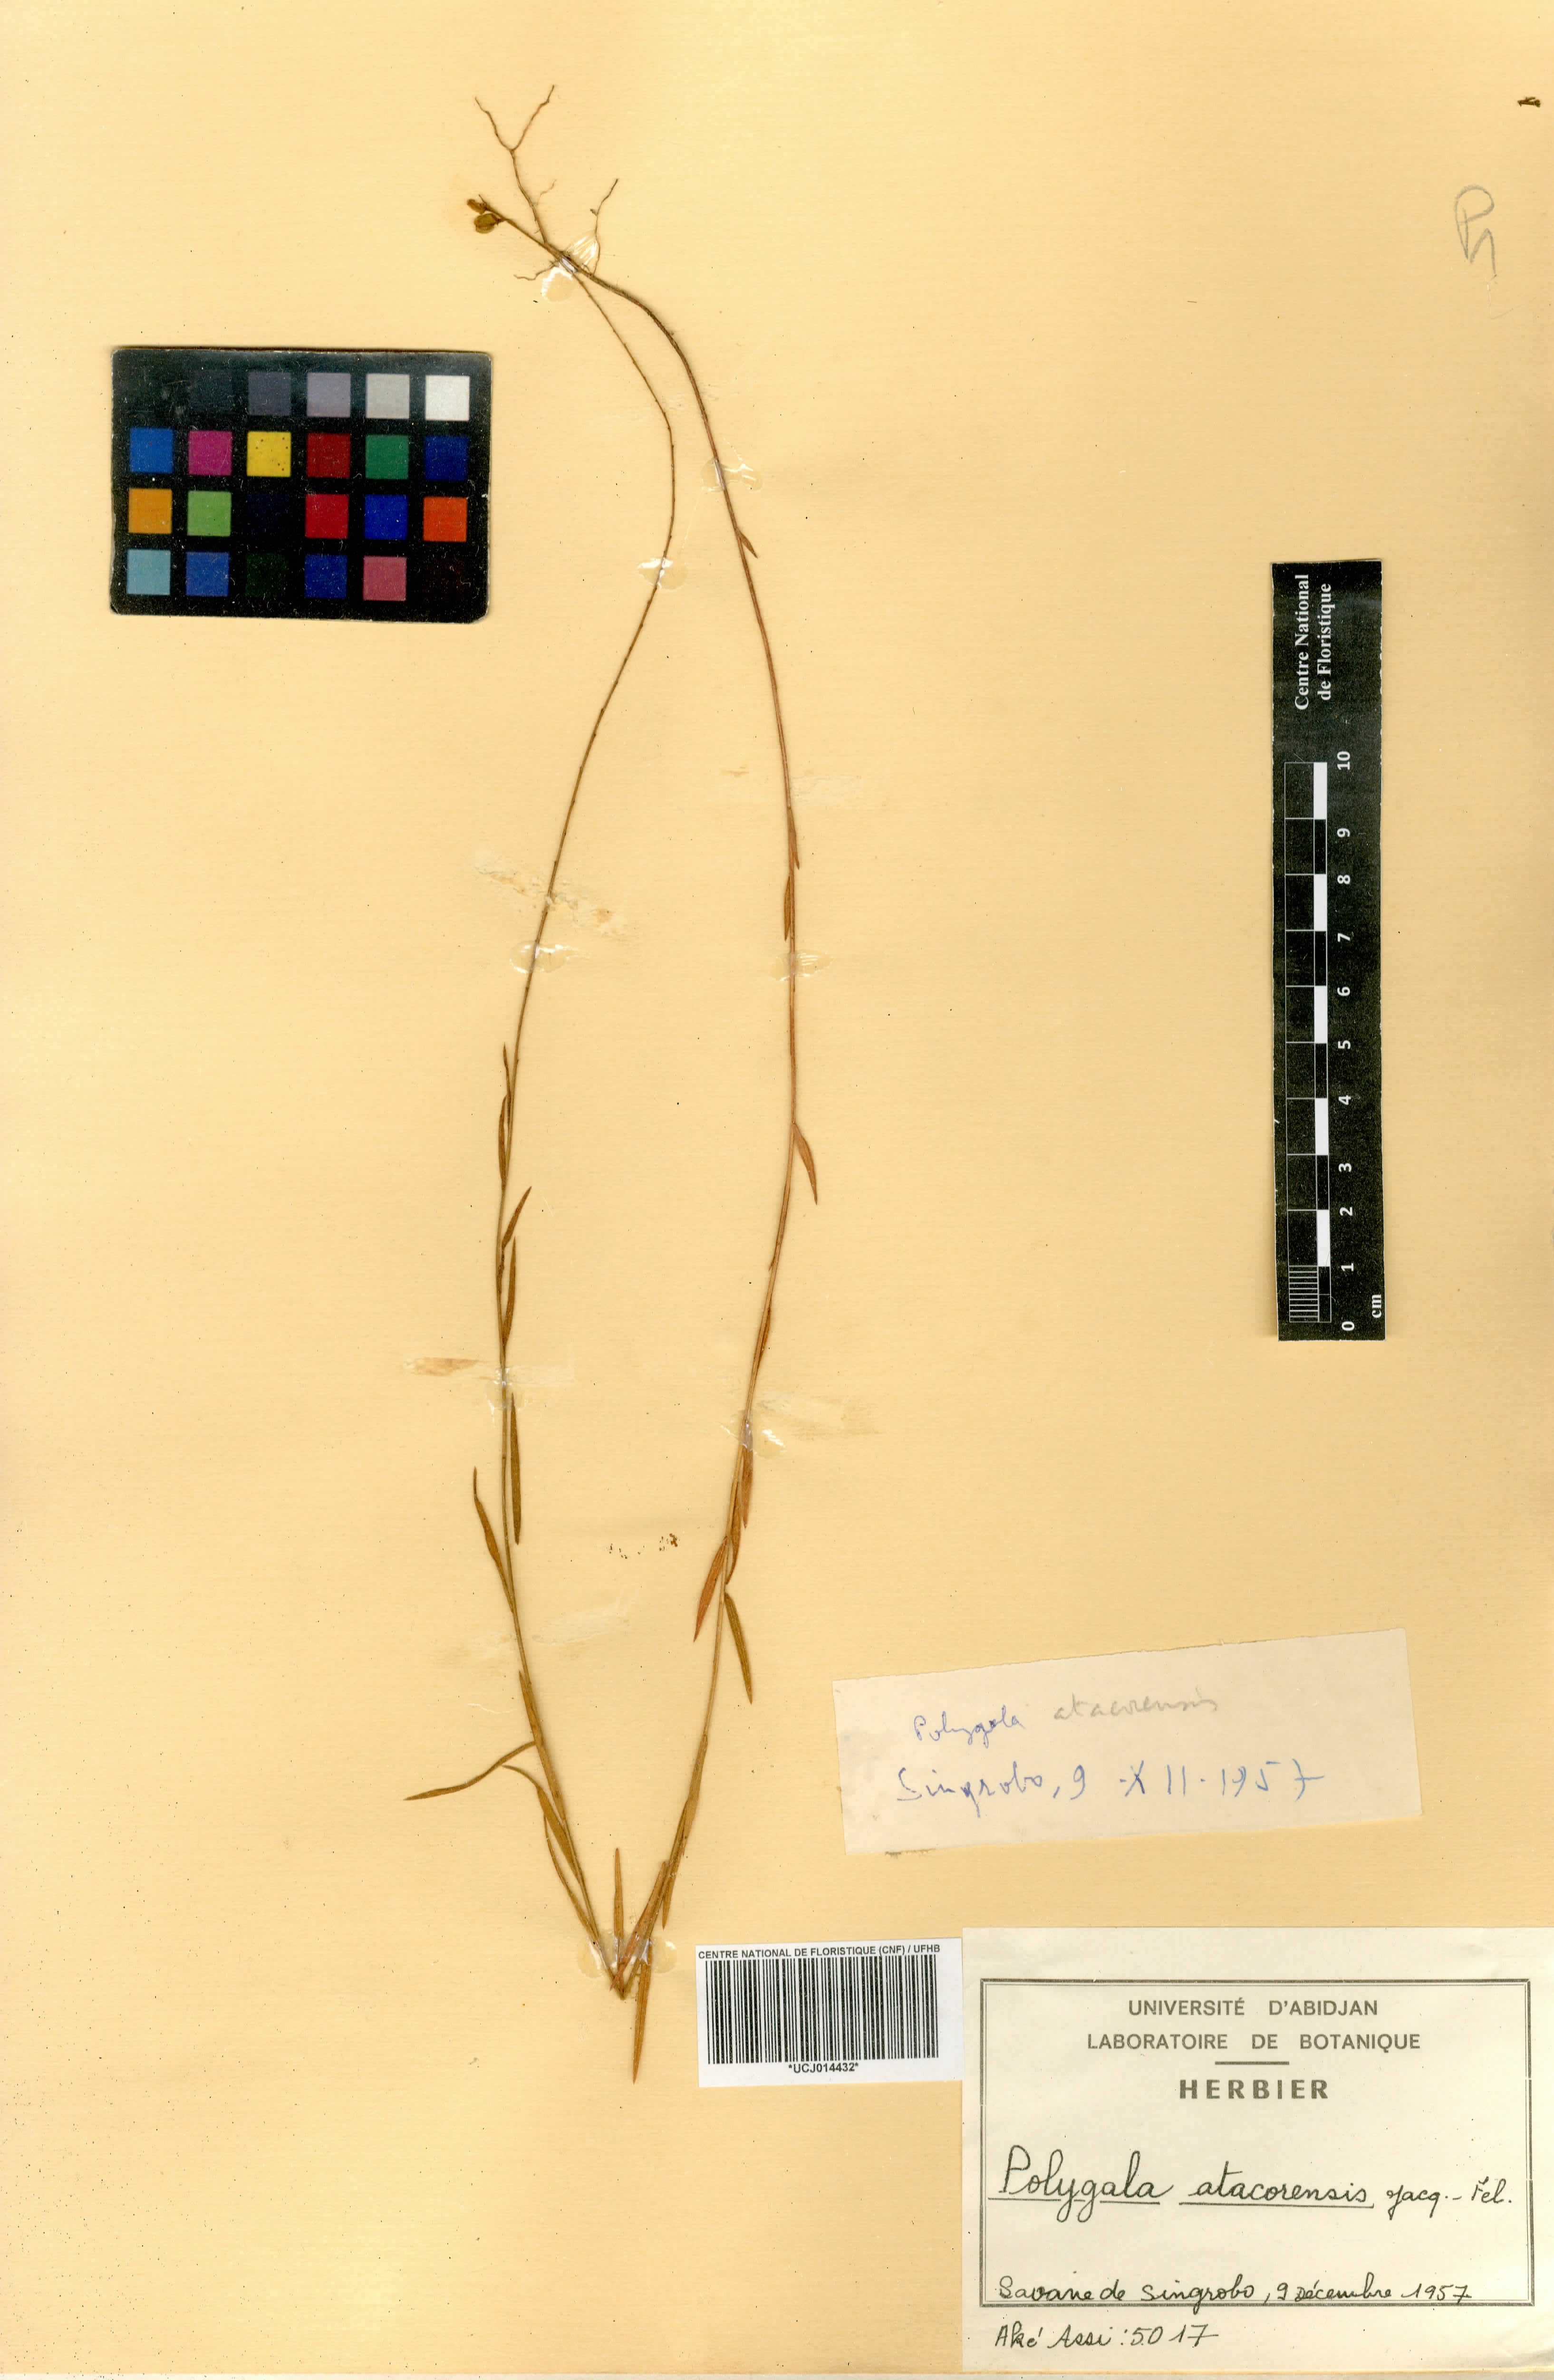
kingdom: Plantae
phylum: Tracheophyta
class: Magnoliopsida
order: Fabales
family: Polygalaceae
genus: Polygala
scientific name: Polygala atacorensis
